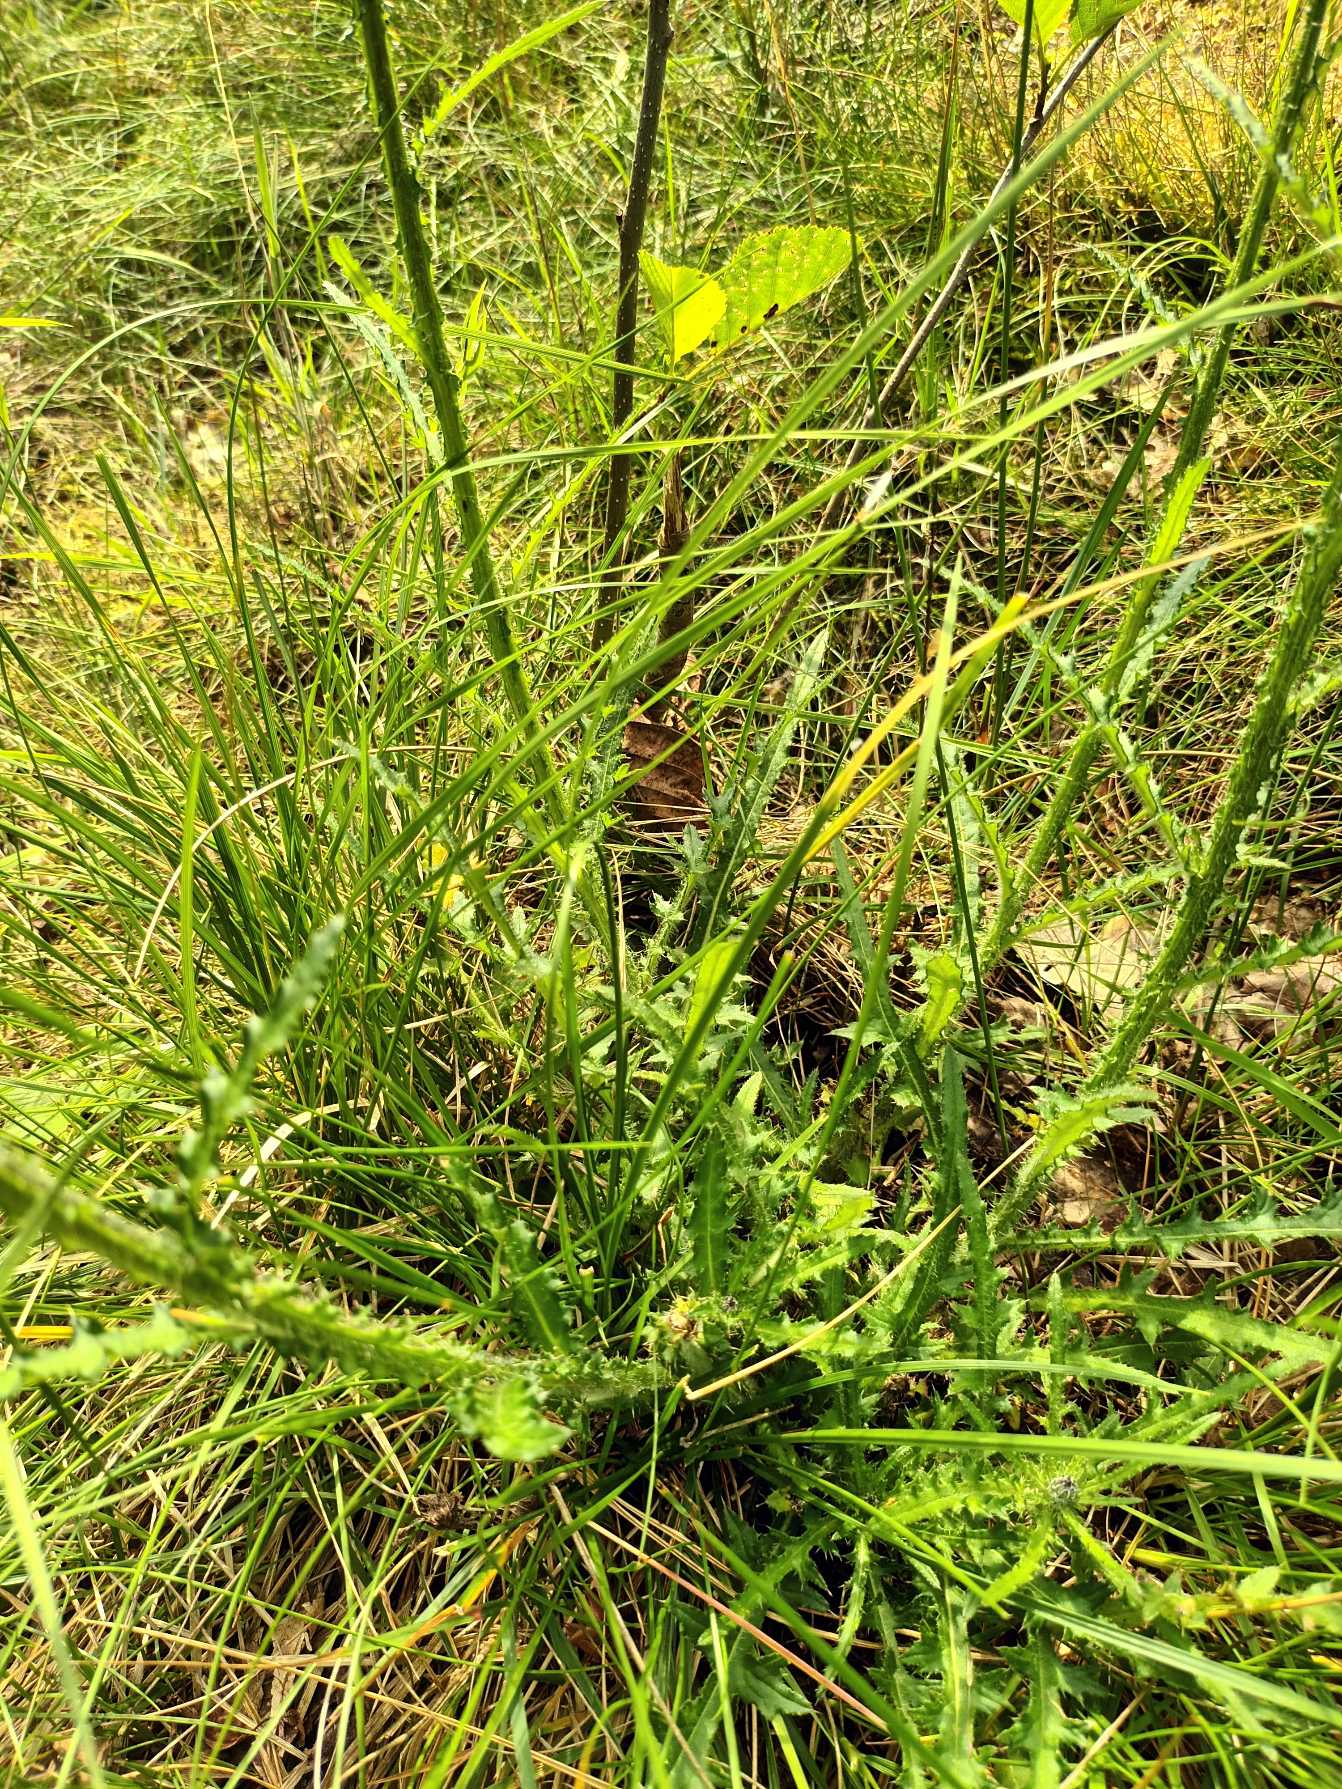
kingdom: Plantae
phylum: Tracheophyta
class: Magnoliopsida
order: Asterales
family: Asteraceae
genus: Cirsium
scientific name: Cirsium palustre
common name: Kær-tidsel
